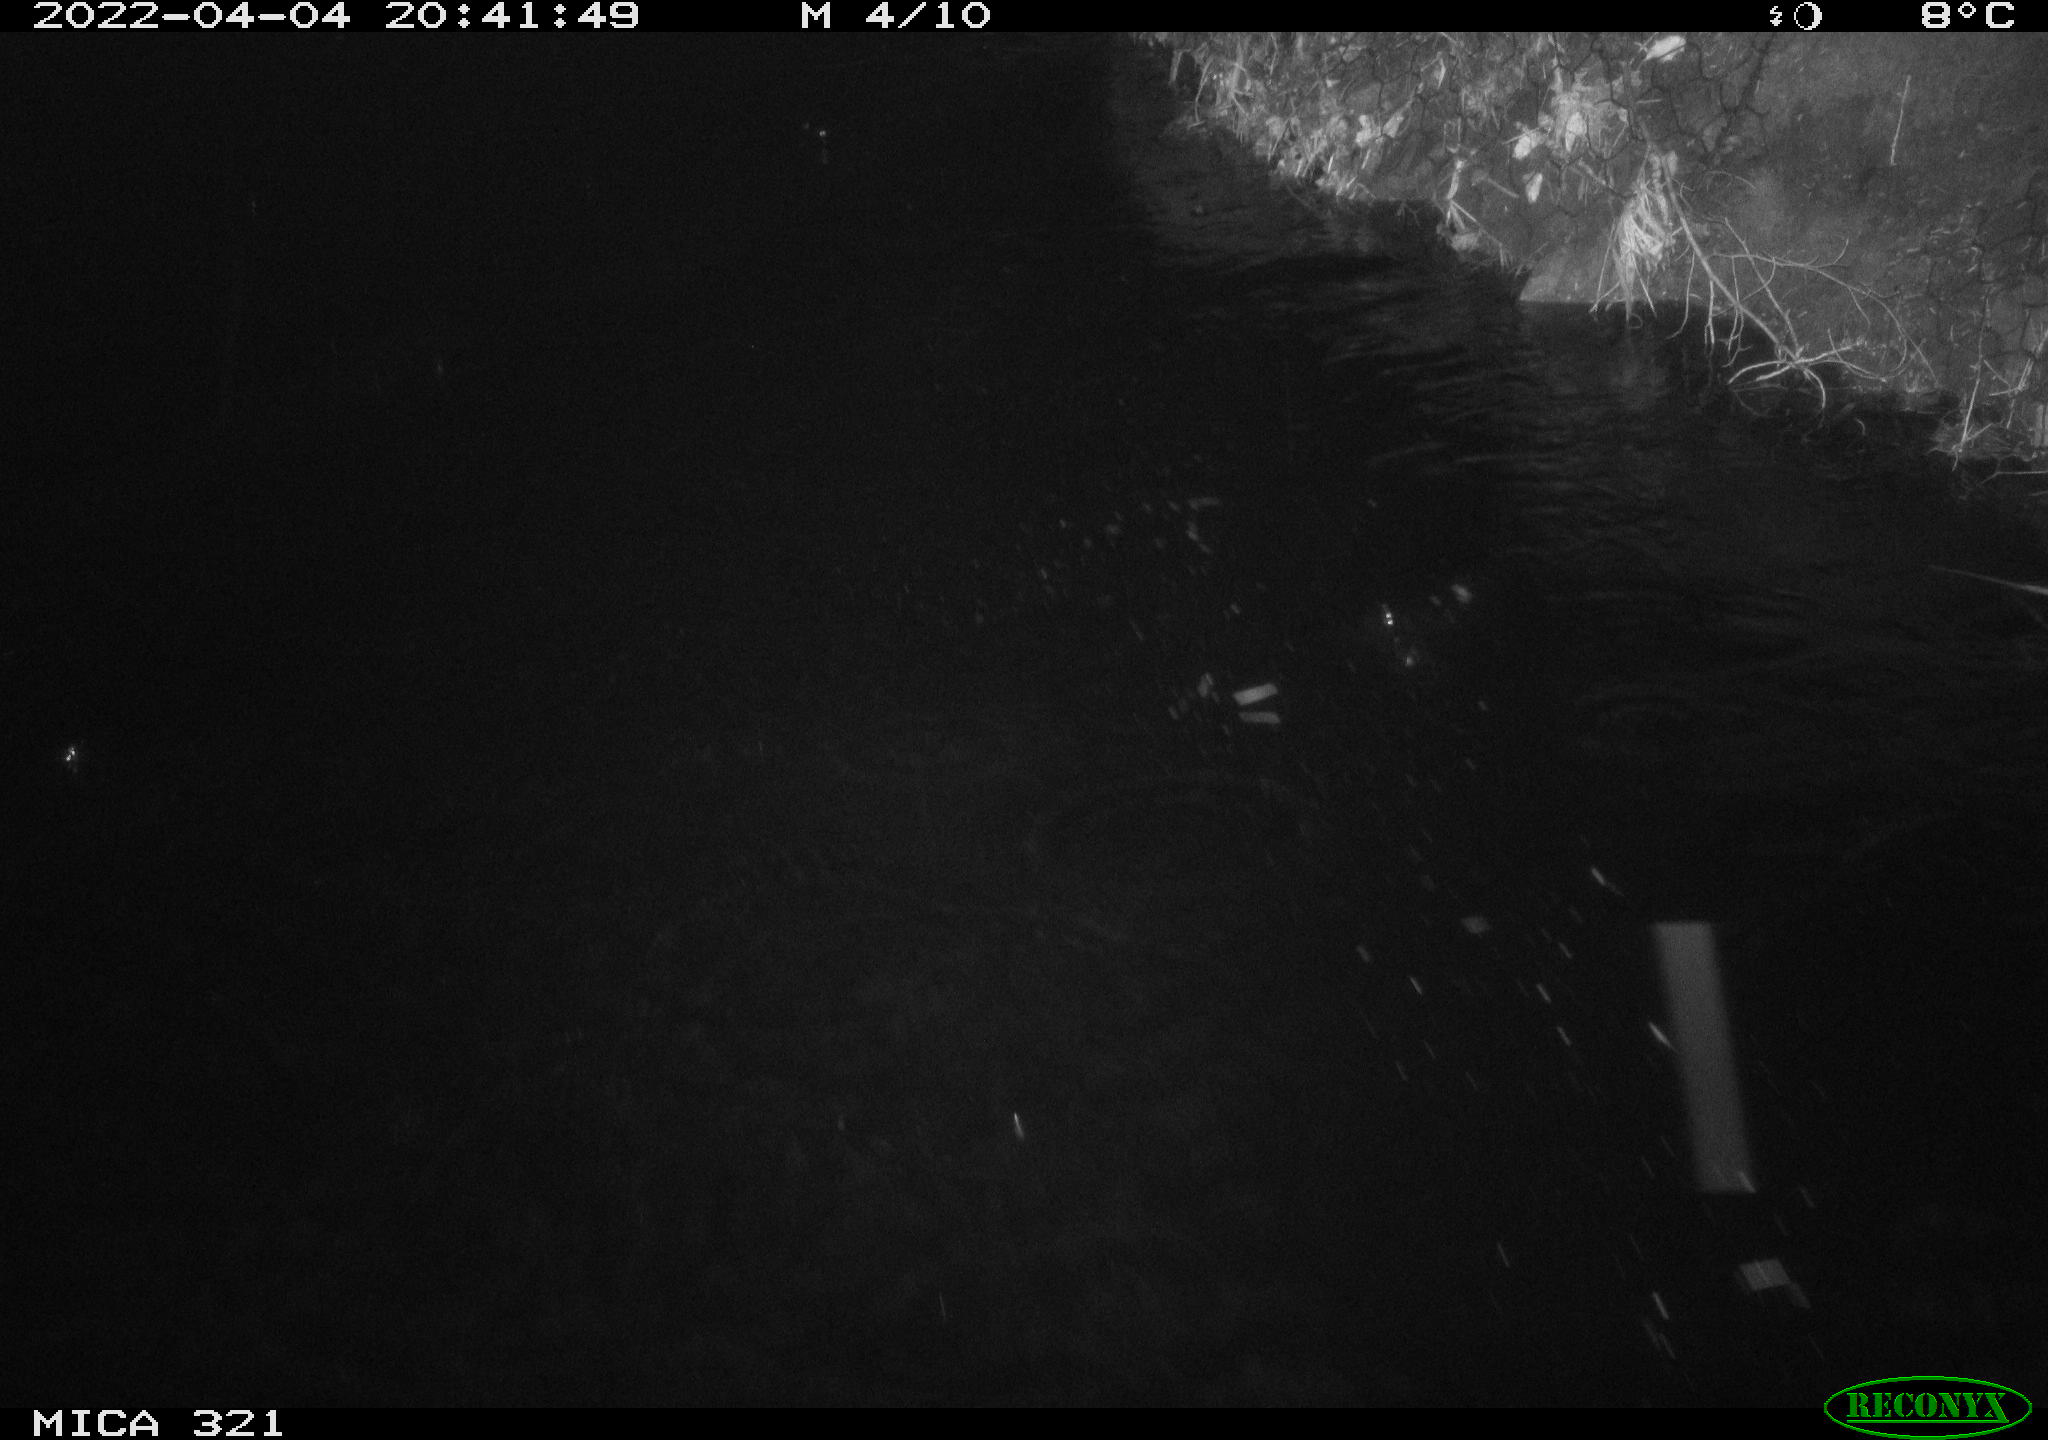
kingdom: Animalia
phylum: Chordata
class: Aves
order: Anseriformes
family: Anatidae
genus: Anas
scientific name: Anas platyrhynchos
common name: Mallard
